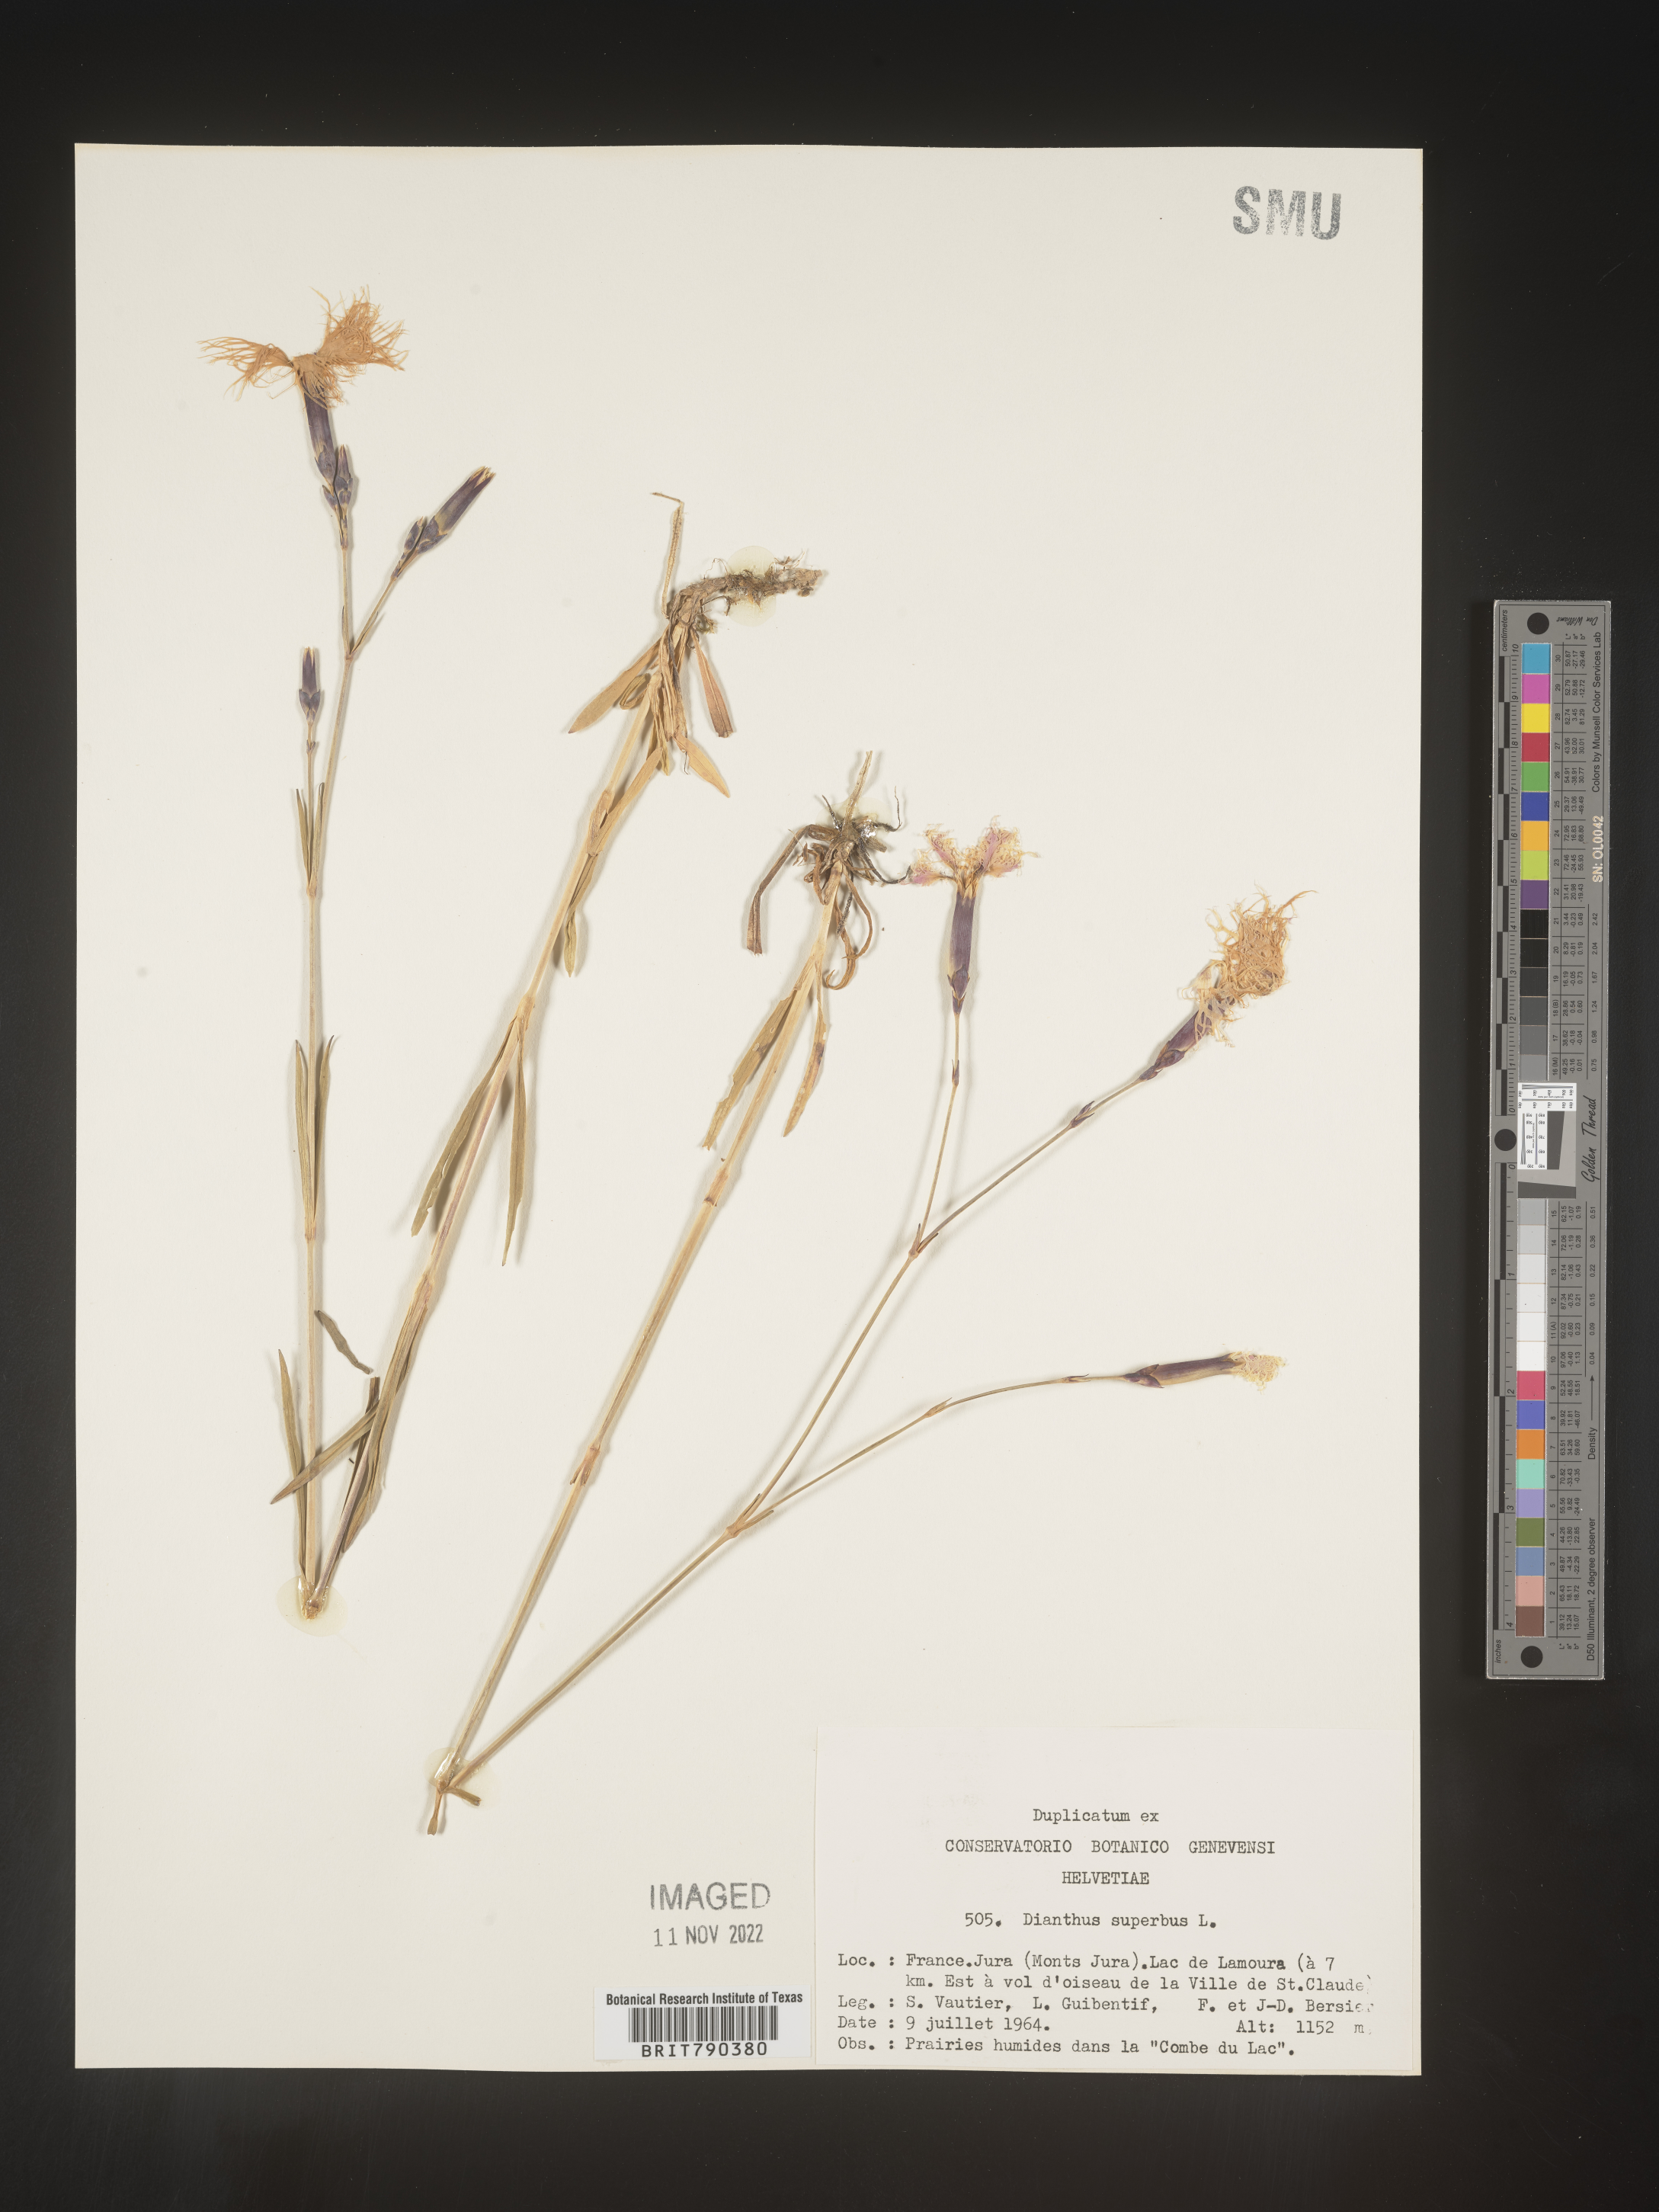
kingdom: Plantae
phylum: Tracheophyta
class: Magnoliopsida
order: Caryophyllales
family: Caryophyllaceae
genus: Dianthus
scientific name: Dianthus superbus
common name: Fringed pink
